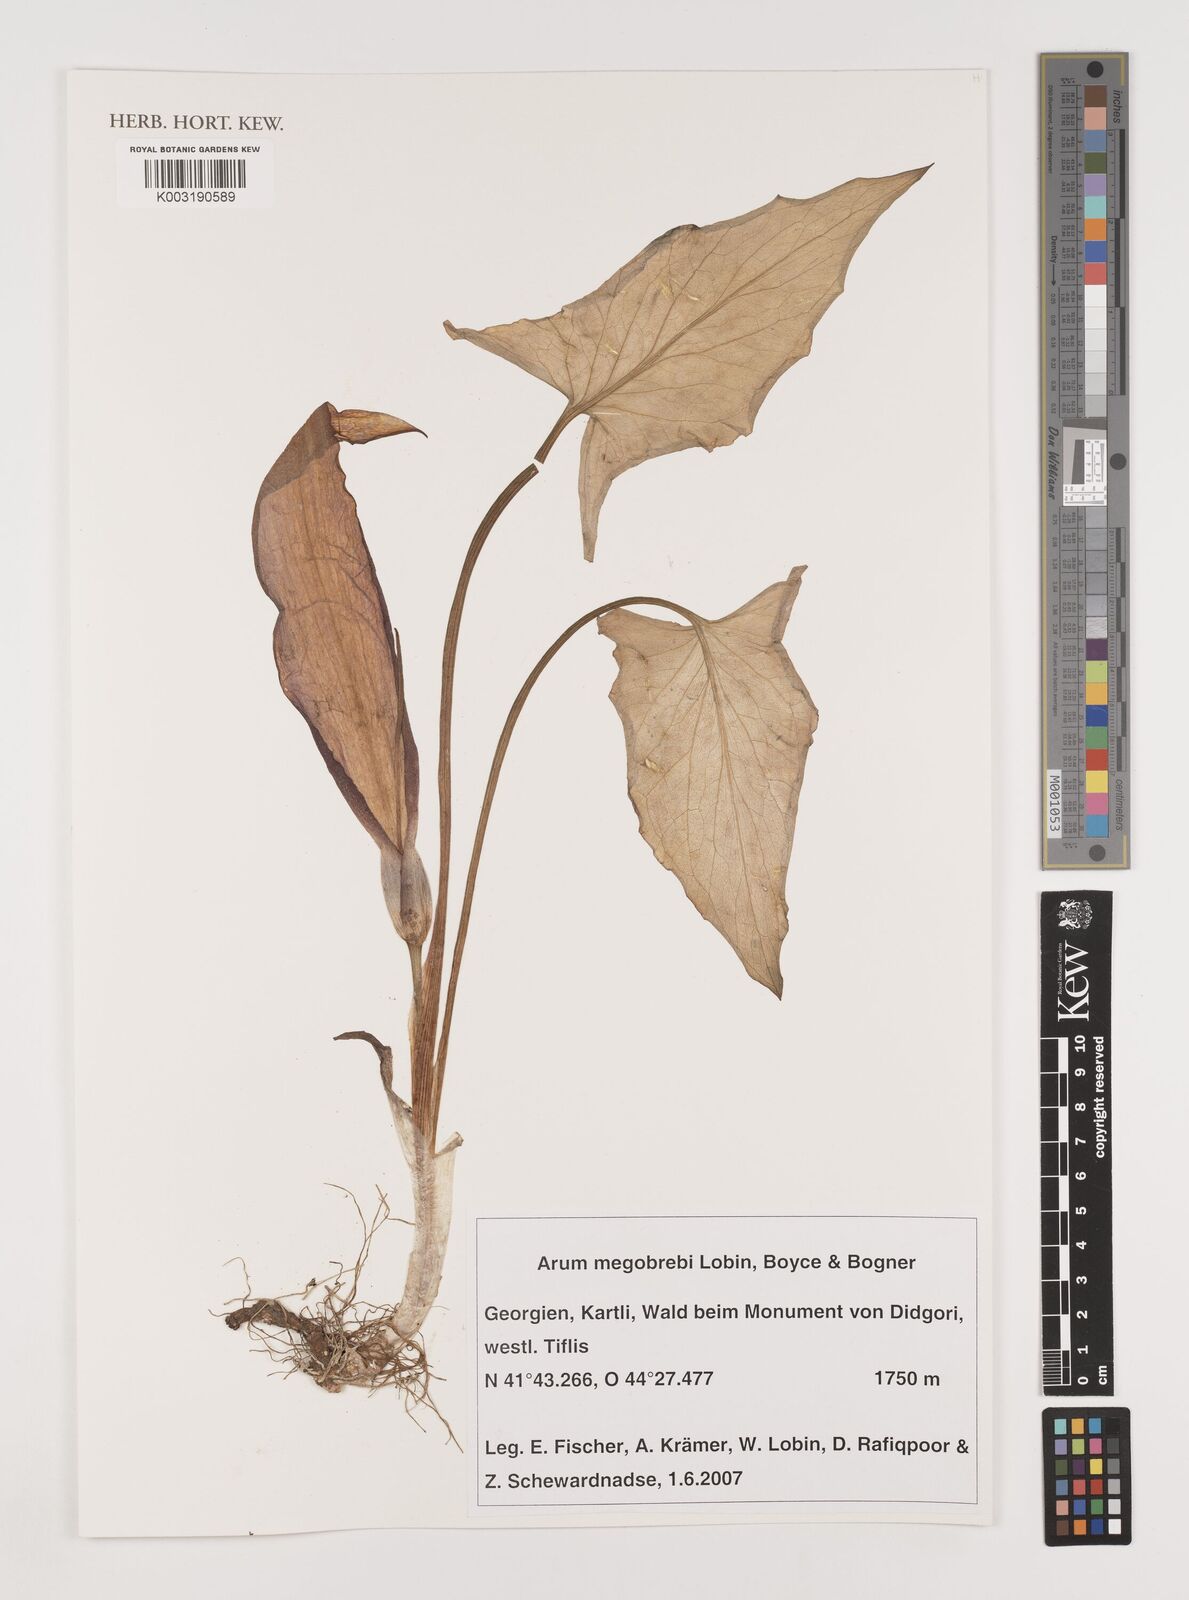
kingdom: Plantae
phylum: Tracheophyta
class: Liliopsida
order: Alismatales
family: Araceae
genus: Arum
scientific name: Arum megobrebi
